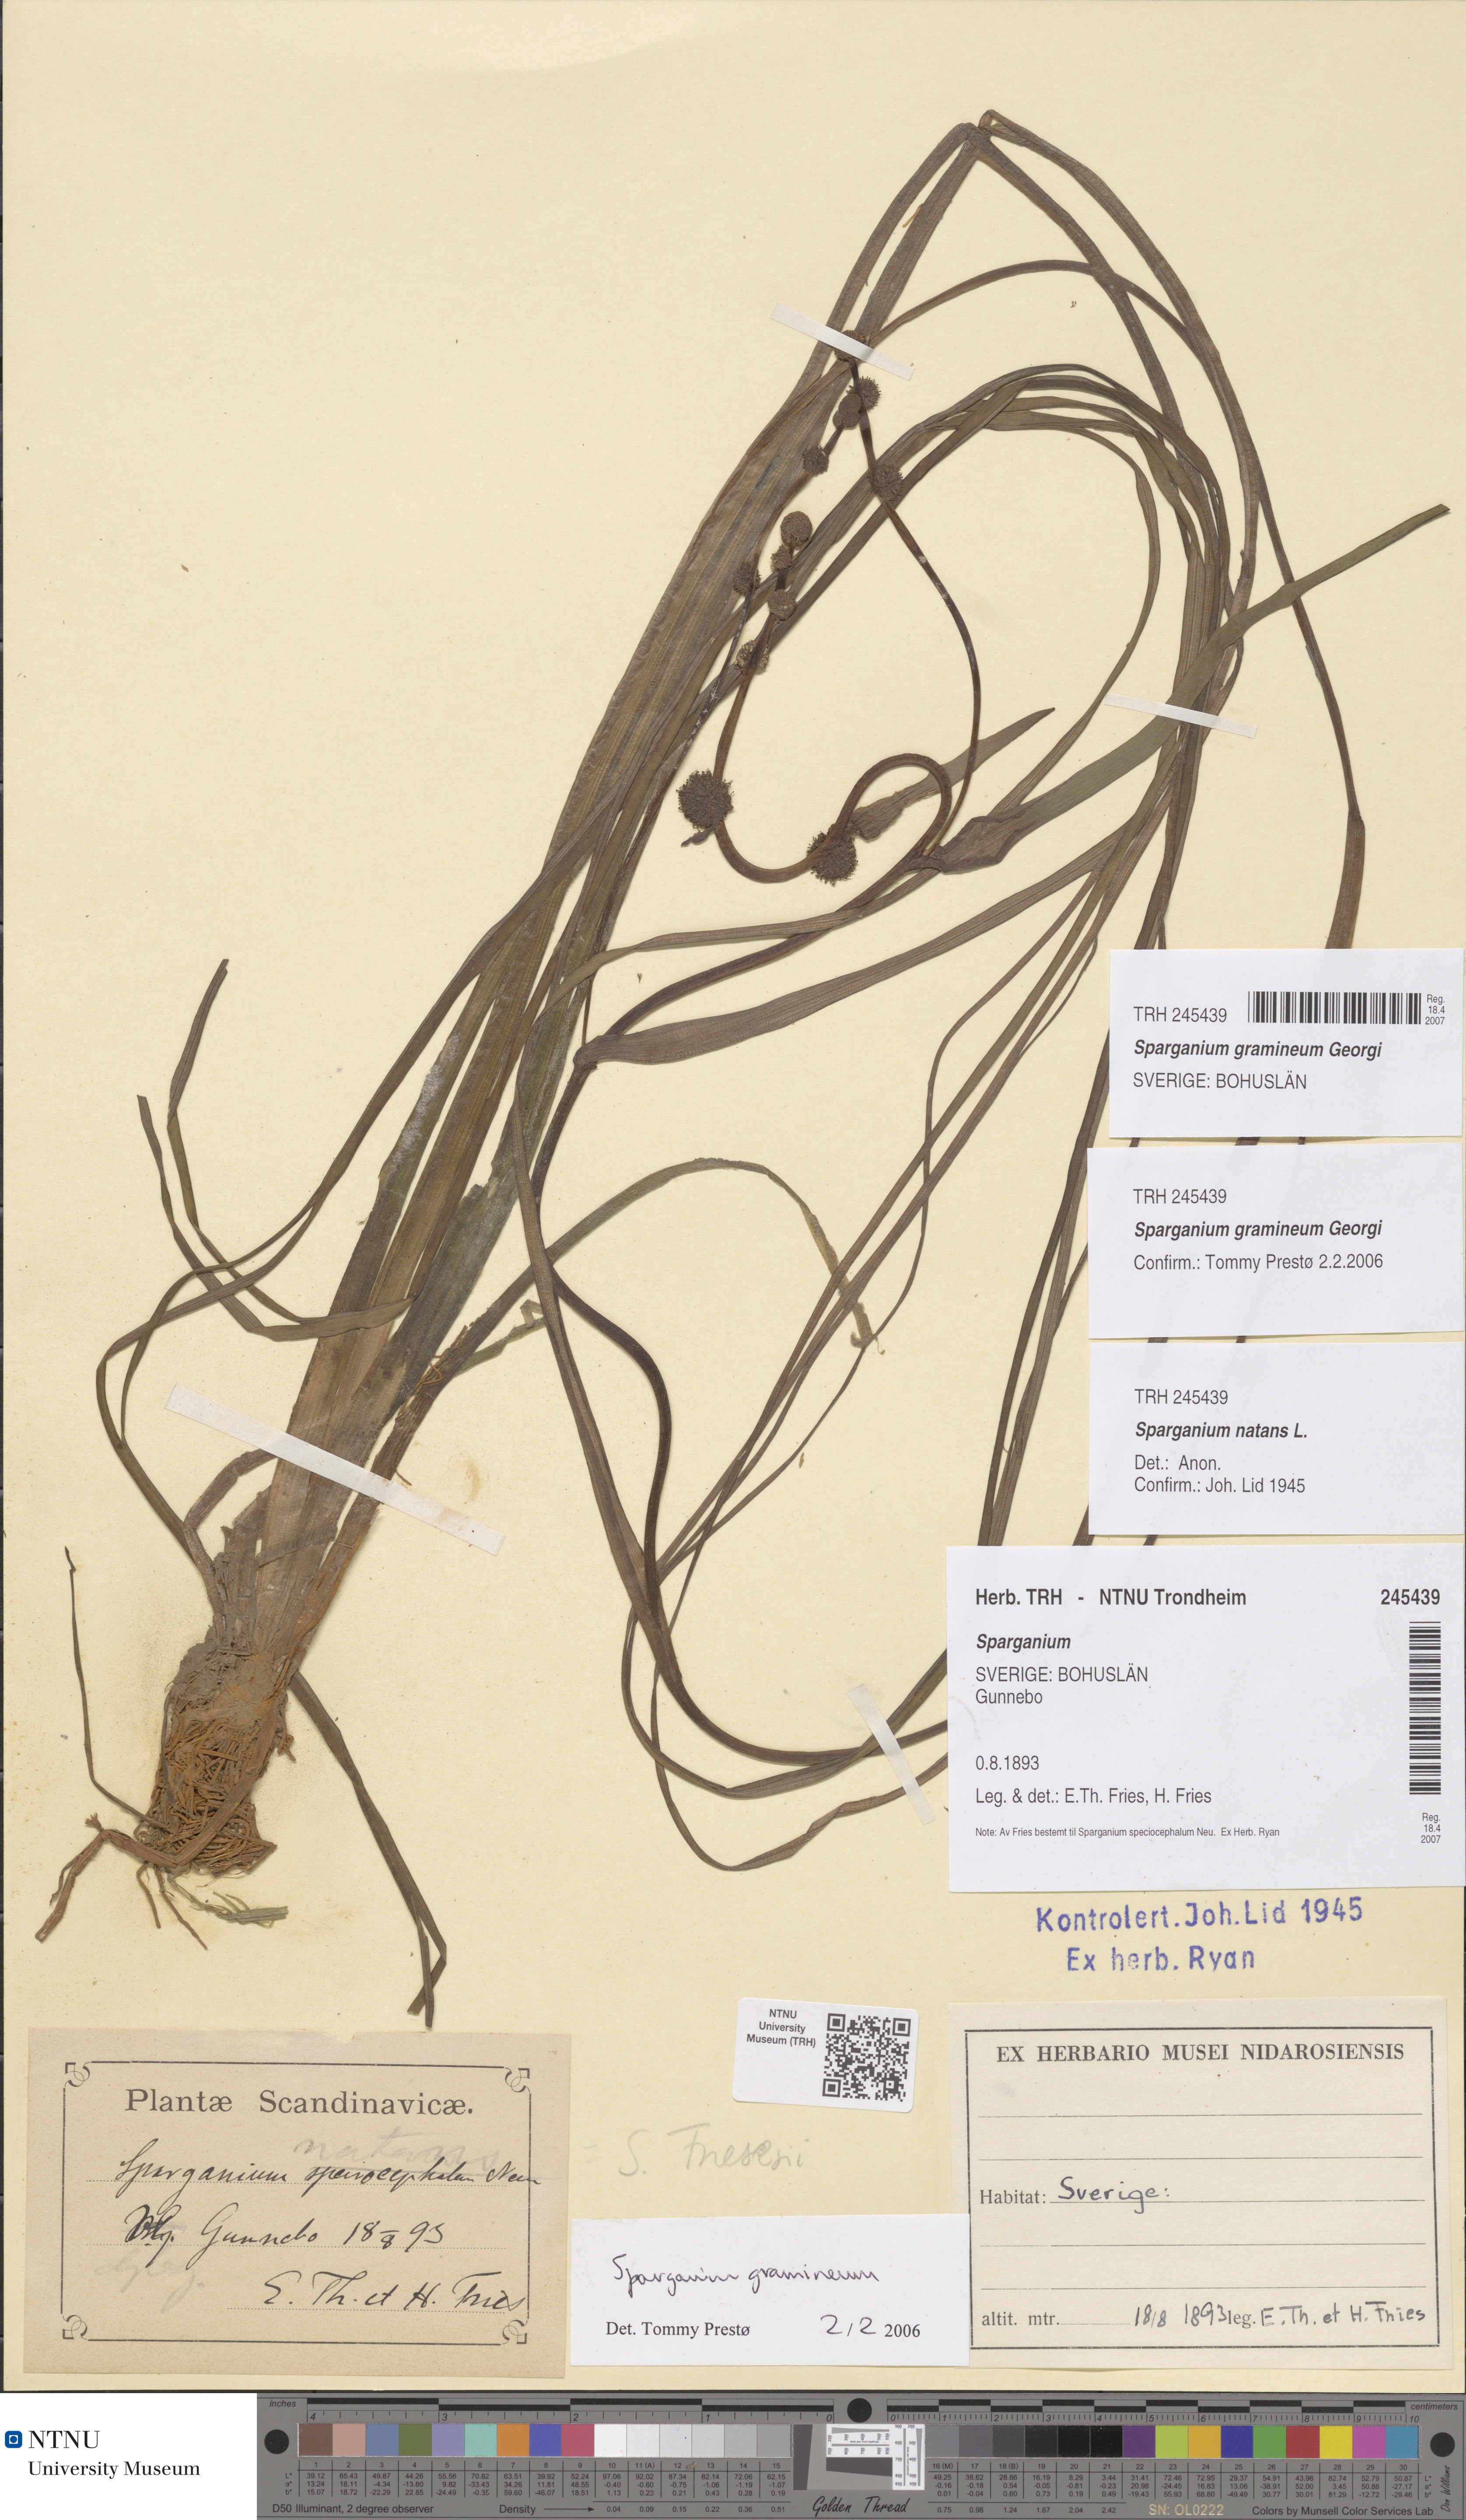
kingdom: Plantae
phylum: Tracheophyta
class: Liliopsida
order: Poales
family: Typhaceae
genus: Sparganium
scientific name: Sparganium gramineum
